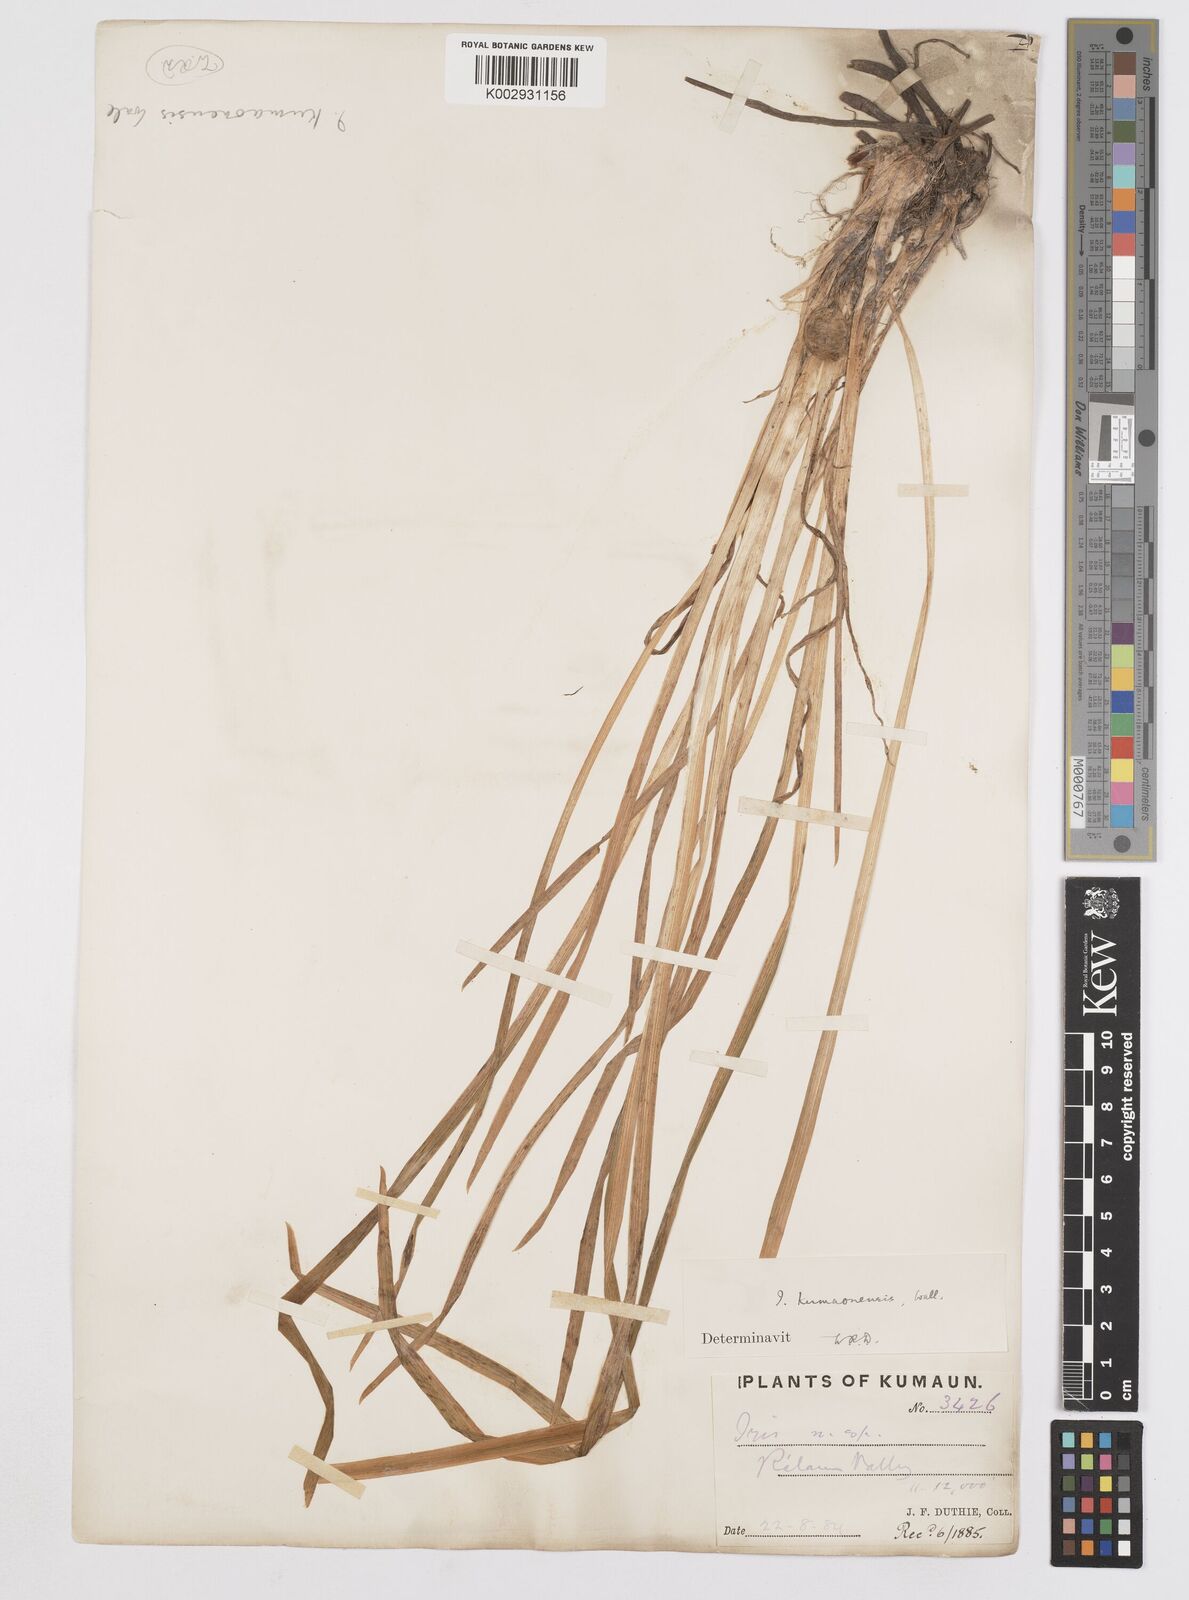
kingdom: Plantae
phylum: Tracheophyta
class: Liliopsida
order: Asparagales
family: Iridaceae
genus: Iris
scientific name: Iris kemaonensis
